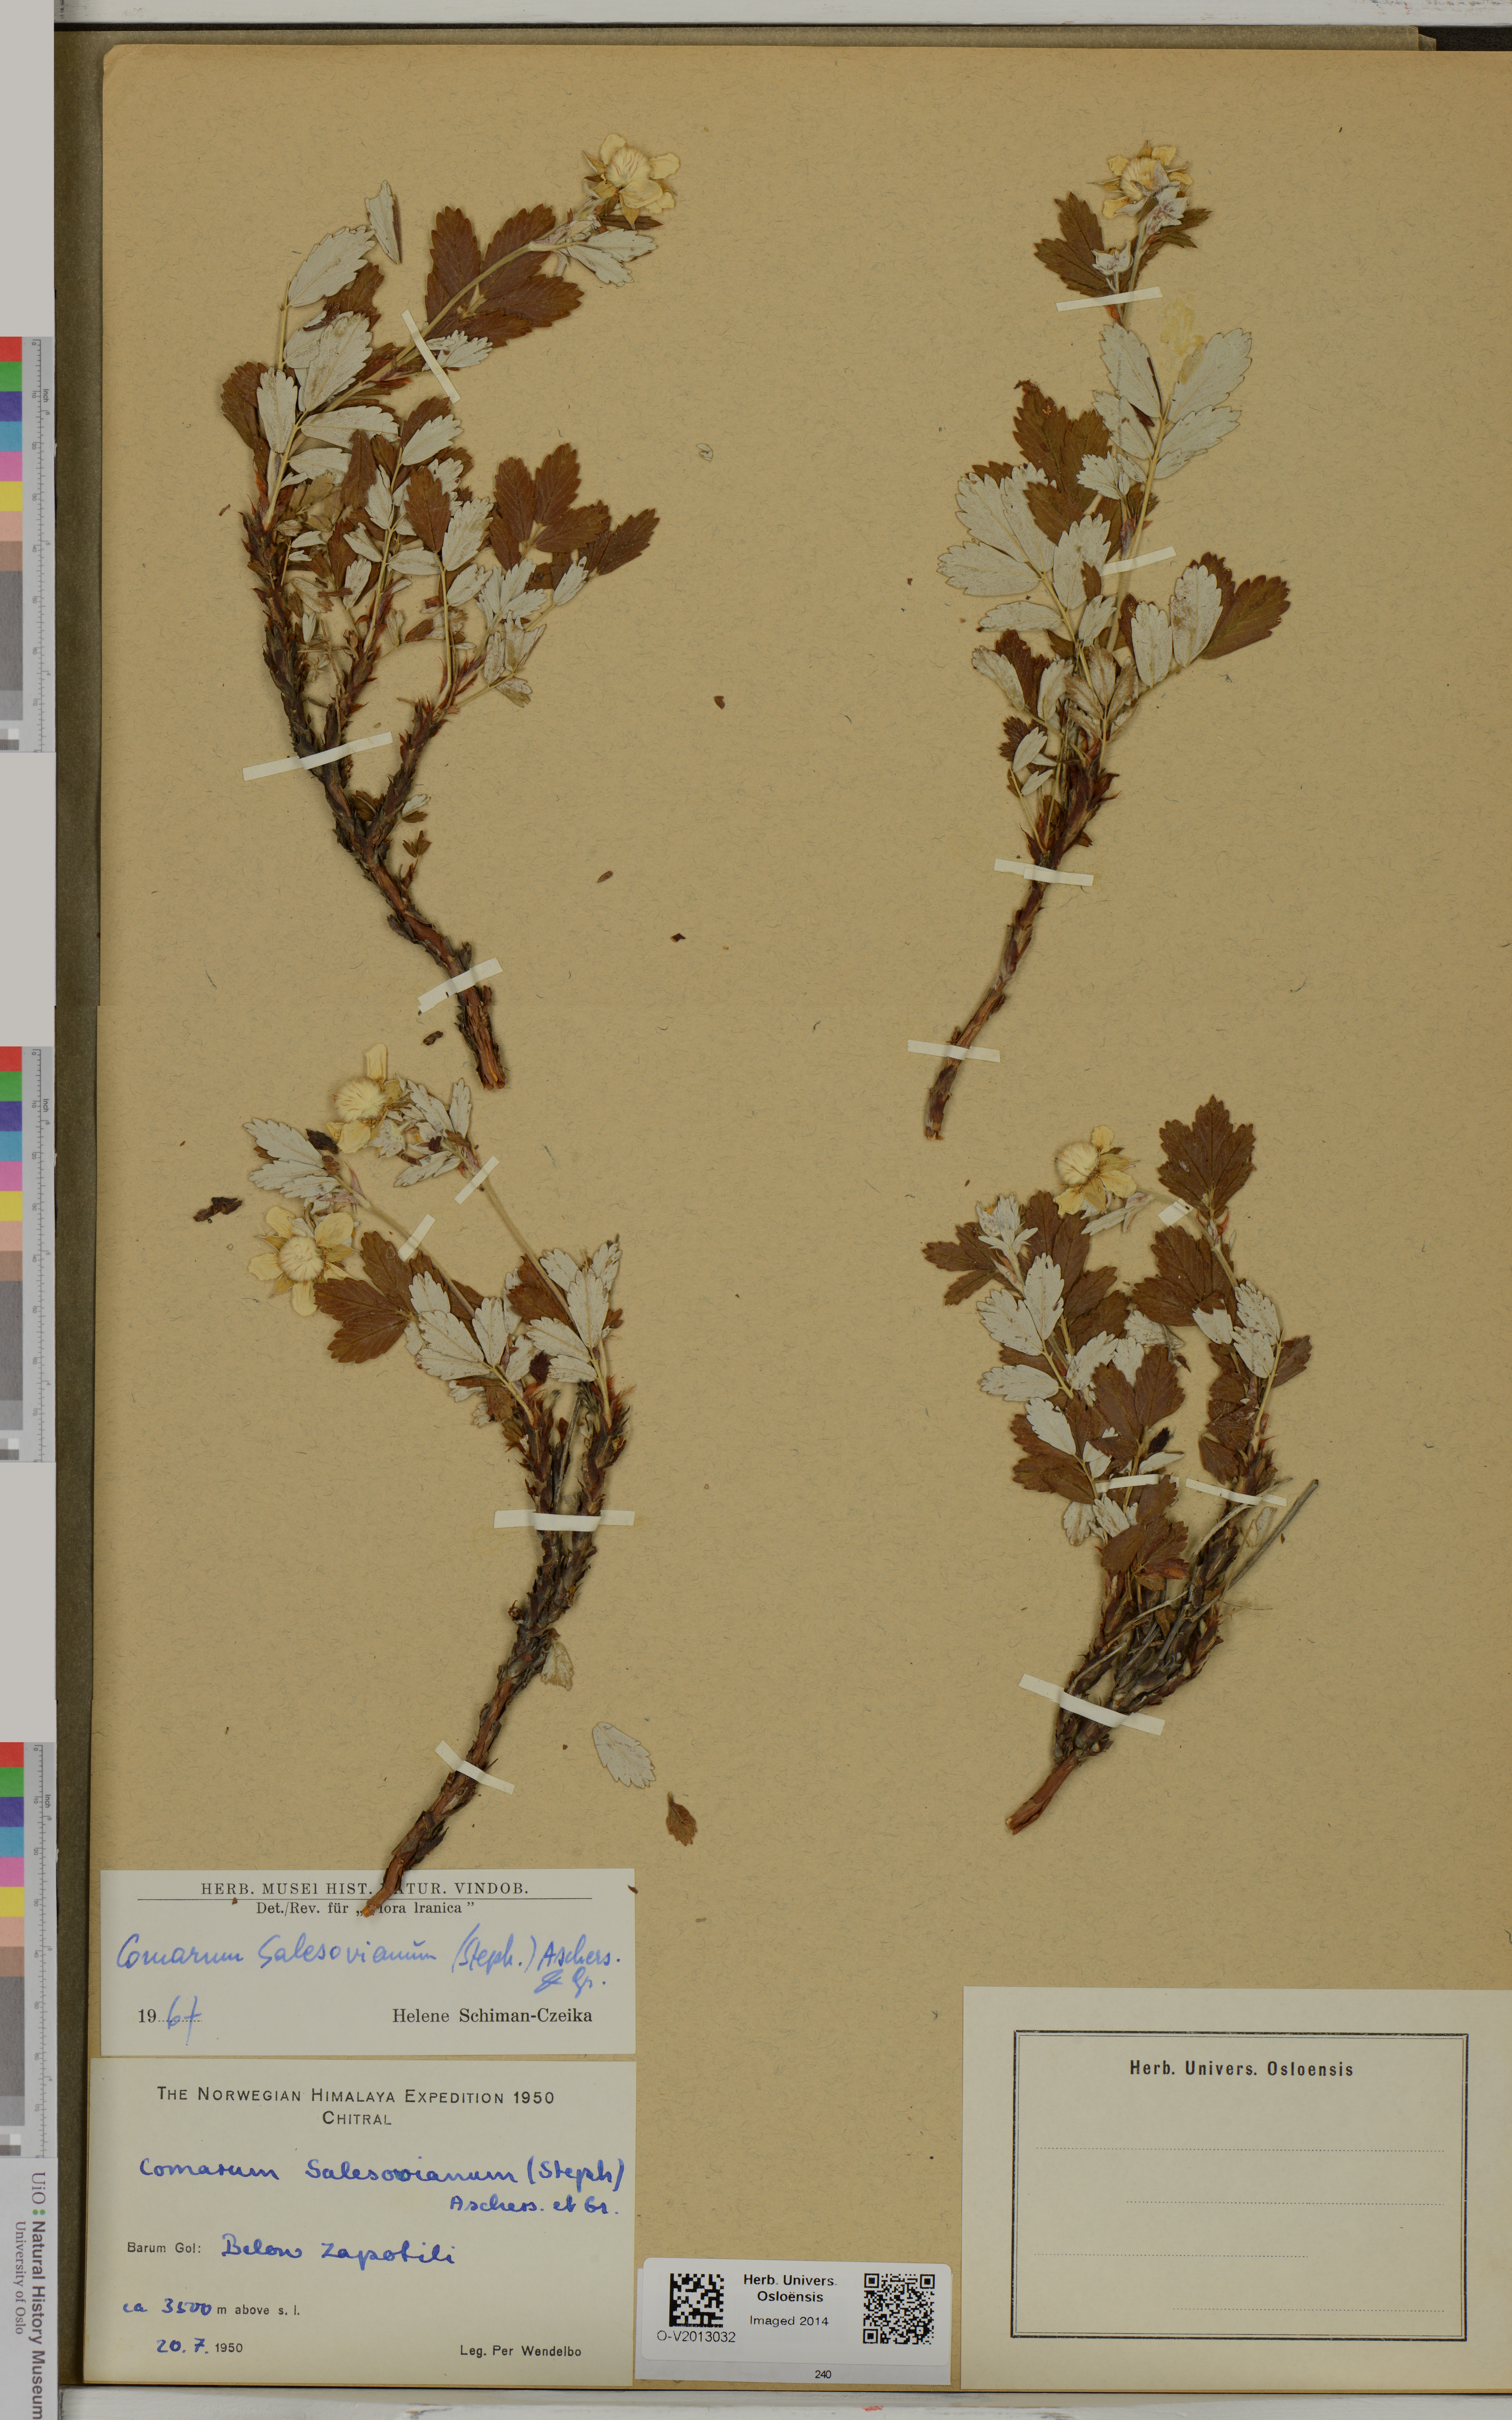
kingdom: Plantae
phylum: Tracheophyta
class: Magnoliopsida
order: Rosales
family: Rosaceae
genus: Farinopsis
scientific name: Farinopsis salesoviana
